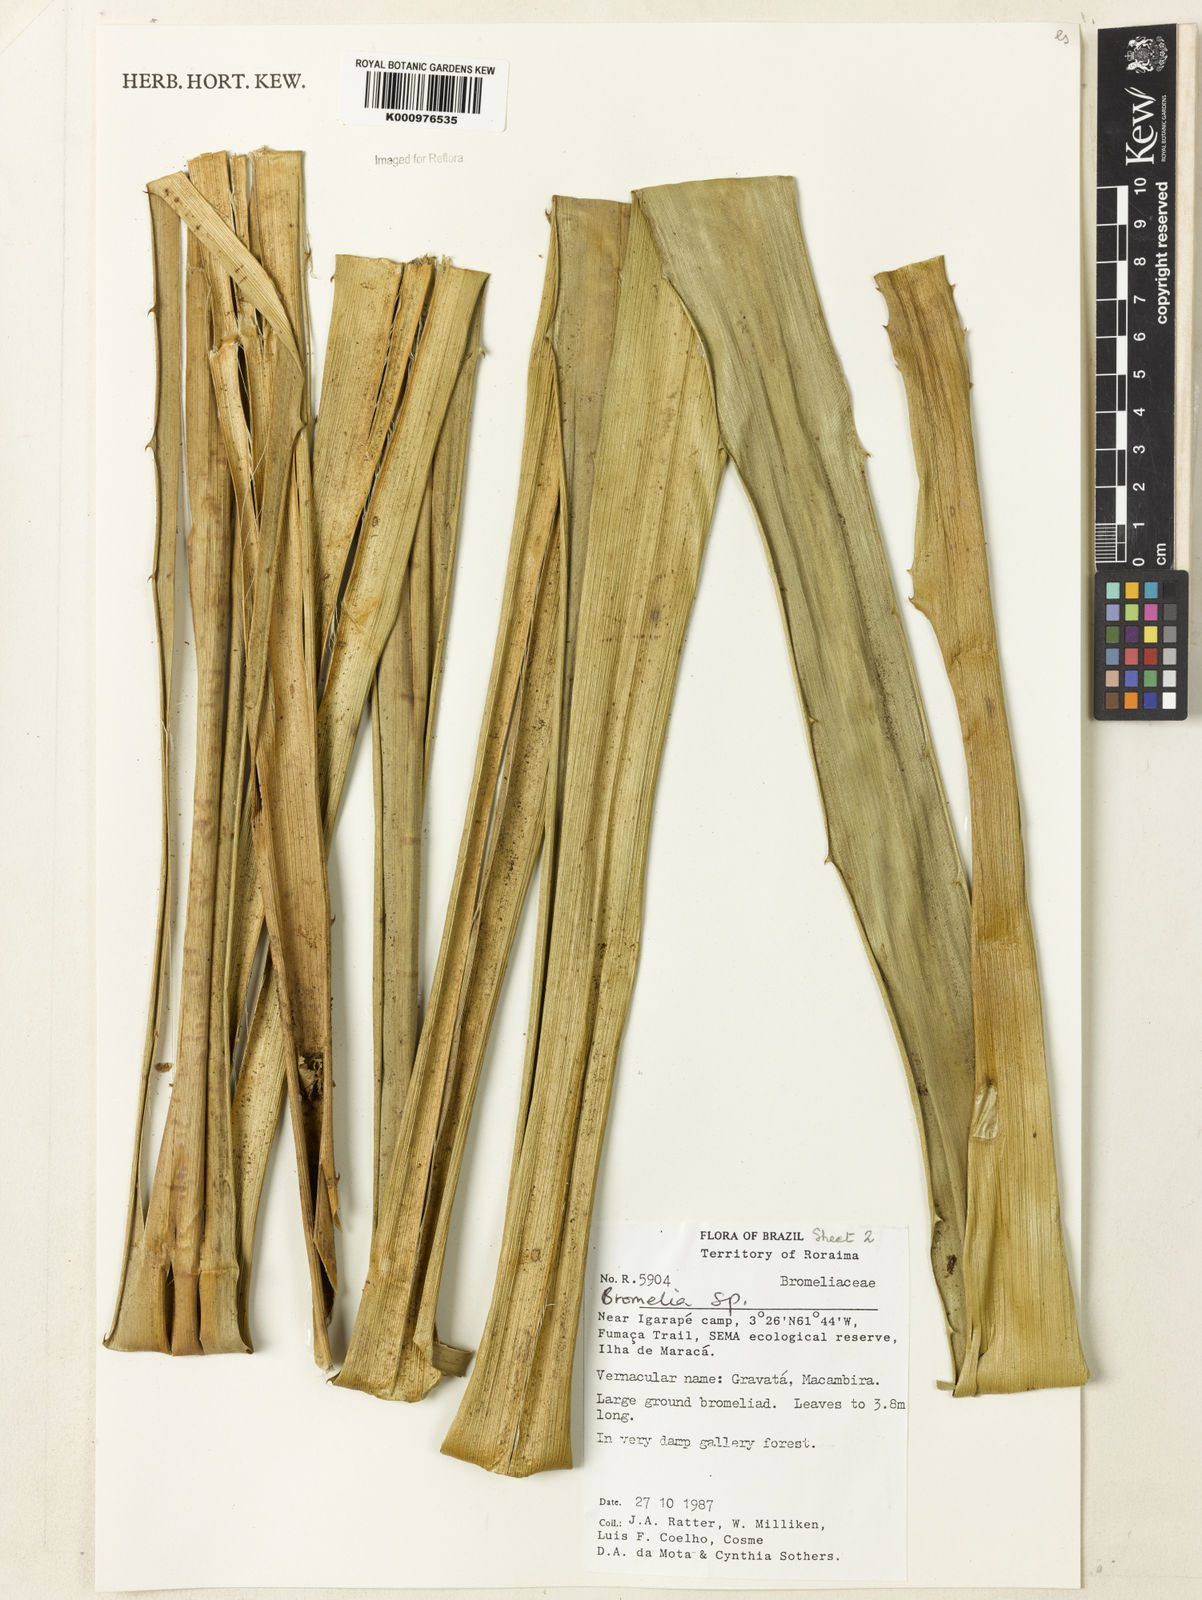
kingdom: Plantae
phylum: Tracheophyta
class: Liliopsida
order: Poales
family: Bromeliaceae
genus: Bromelia
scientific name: Bromelia goeldiana
